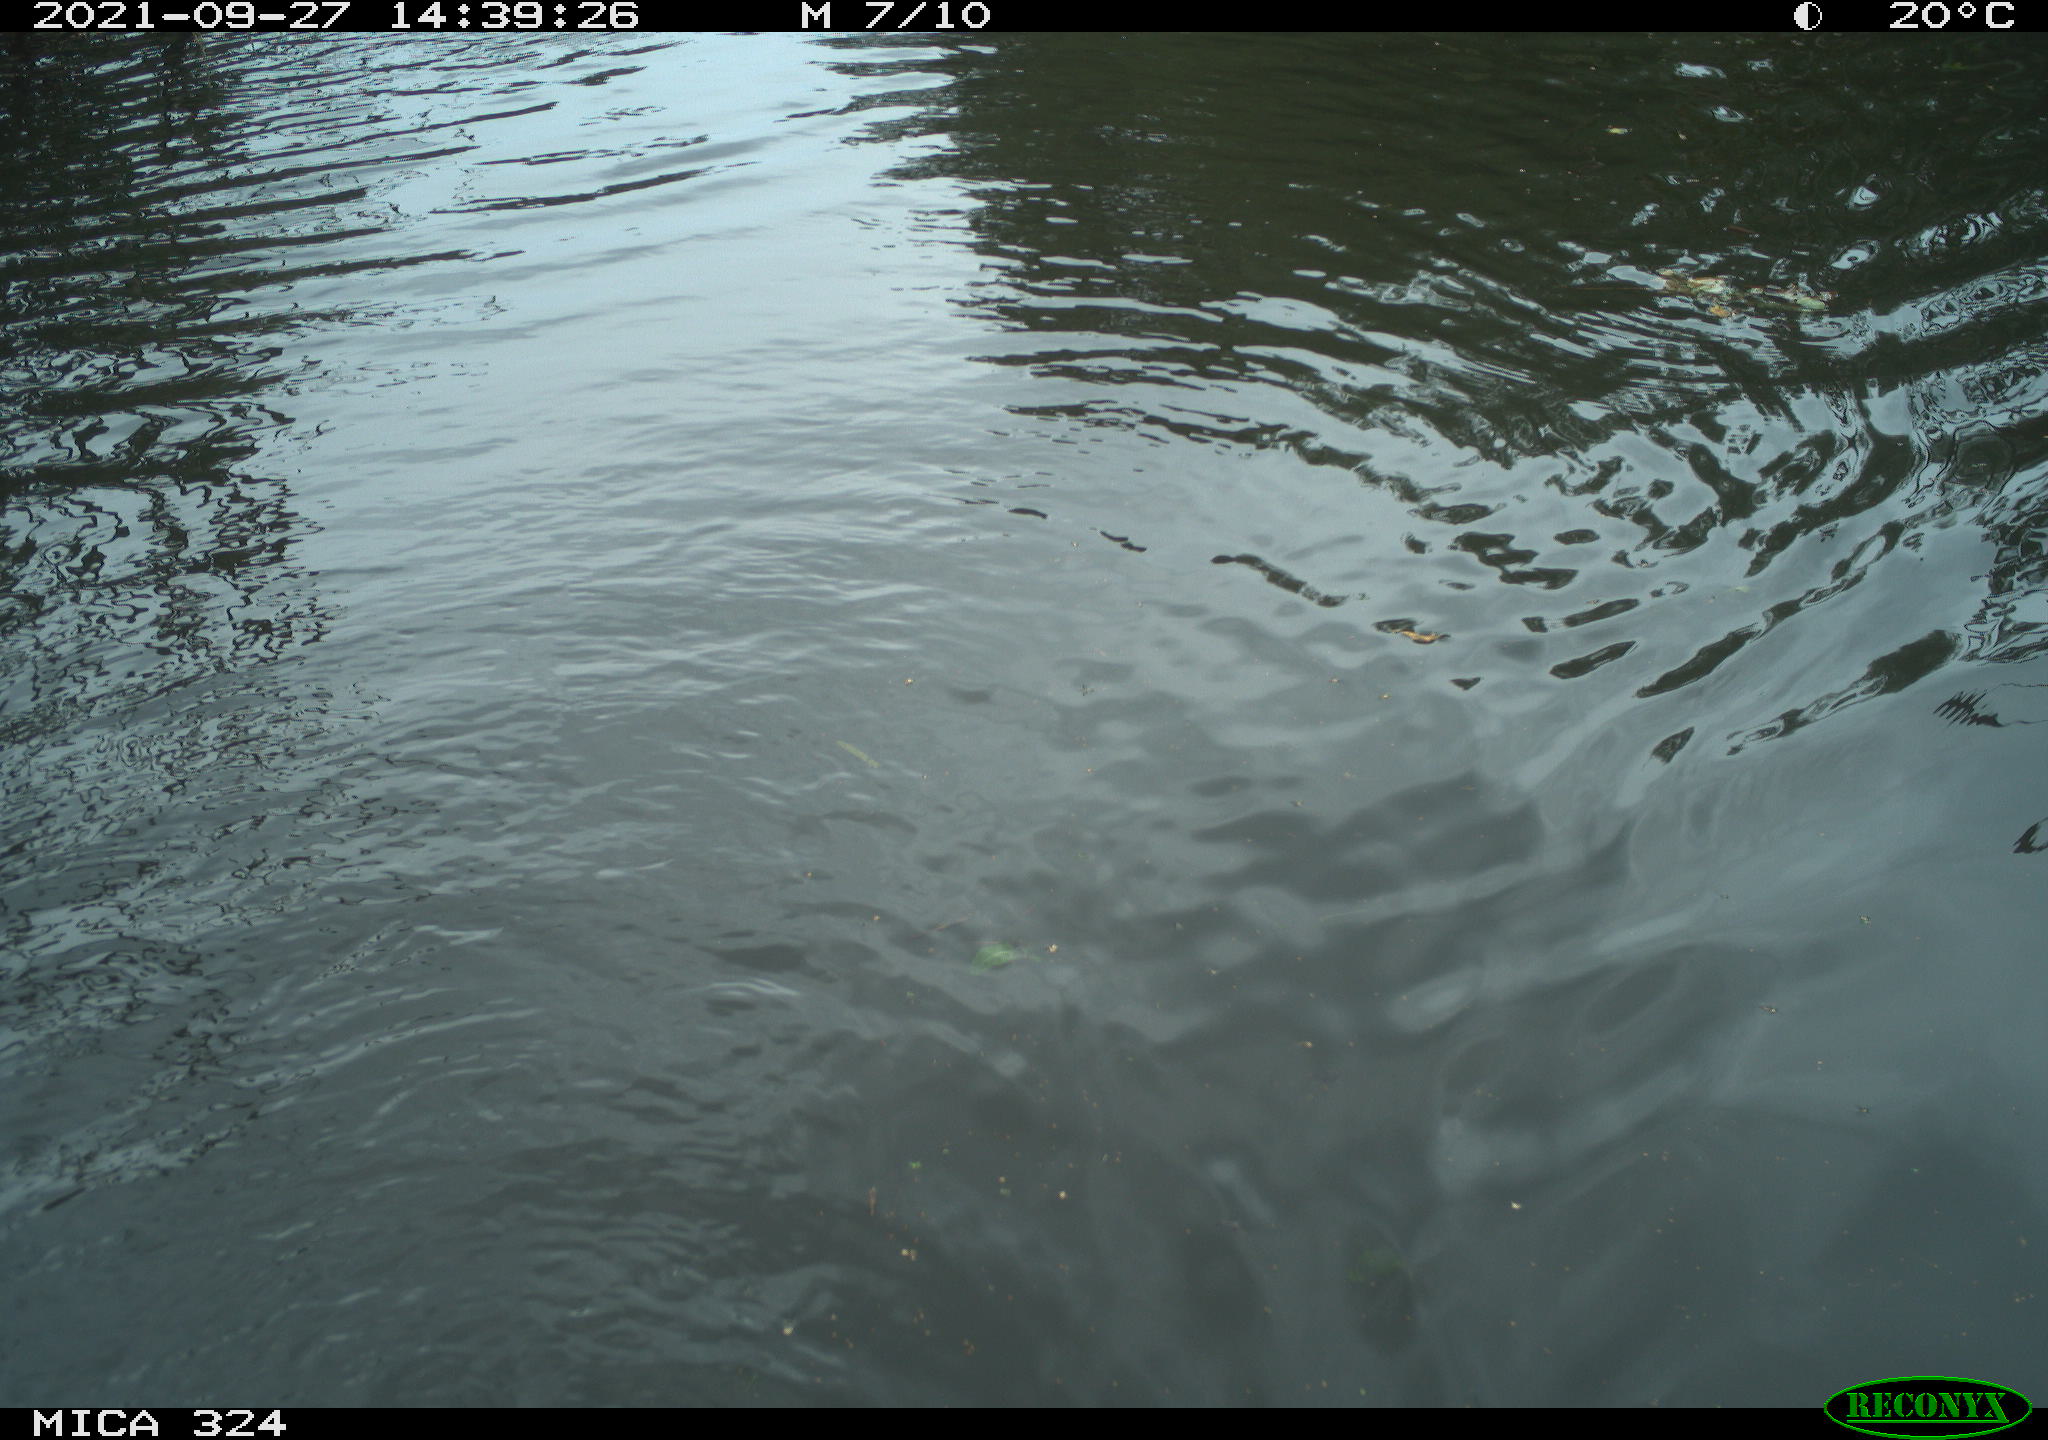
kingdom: Animalia
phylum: Chordata
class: Mammalia
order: Rodentia
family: Cricetidae
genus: Ondatra
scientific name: Ondatra zibethicus
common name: Muskrat
